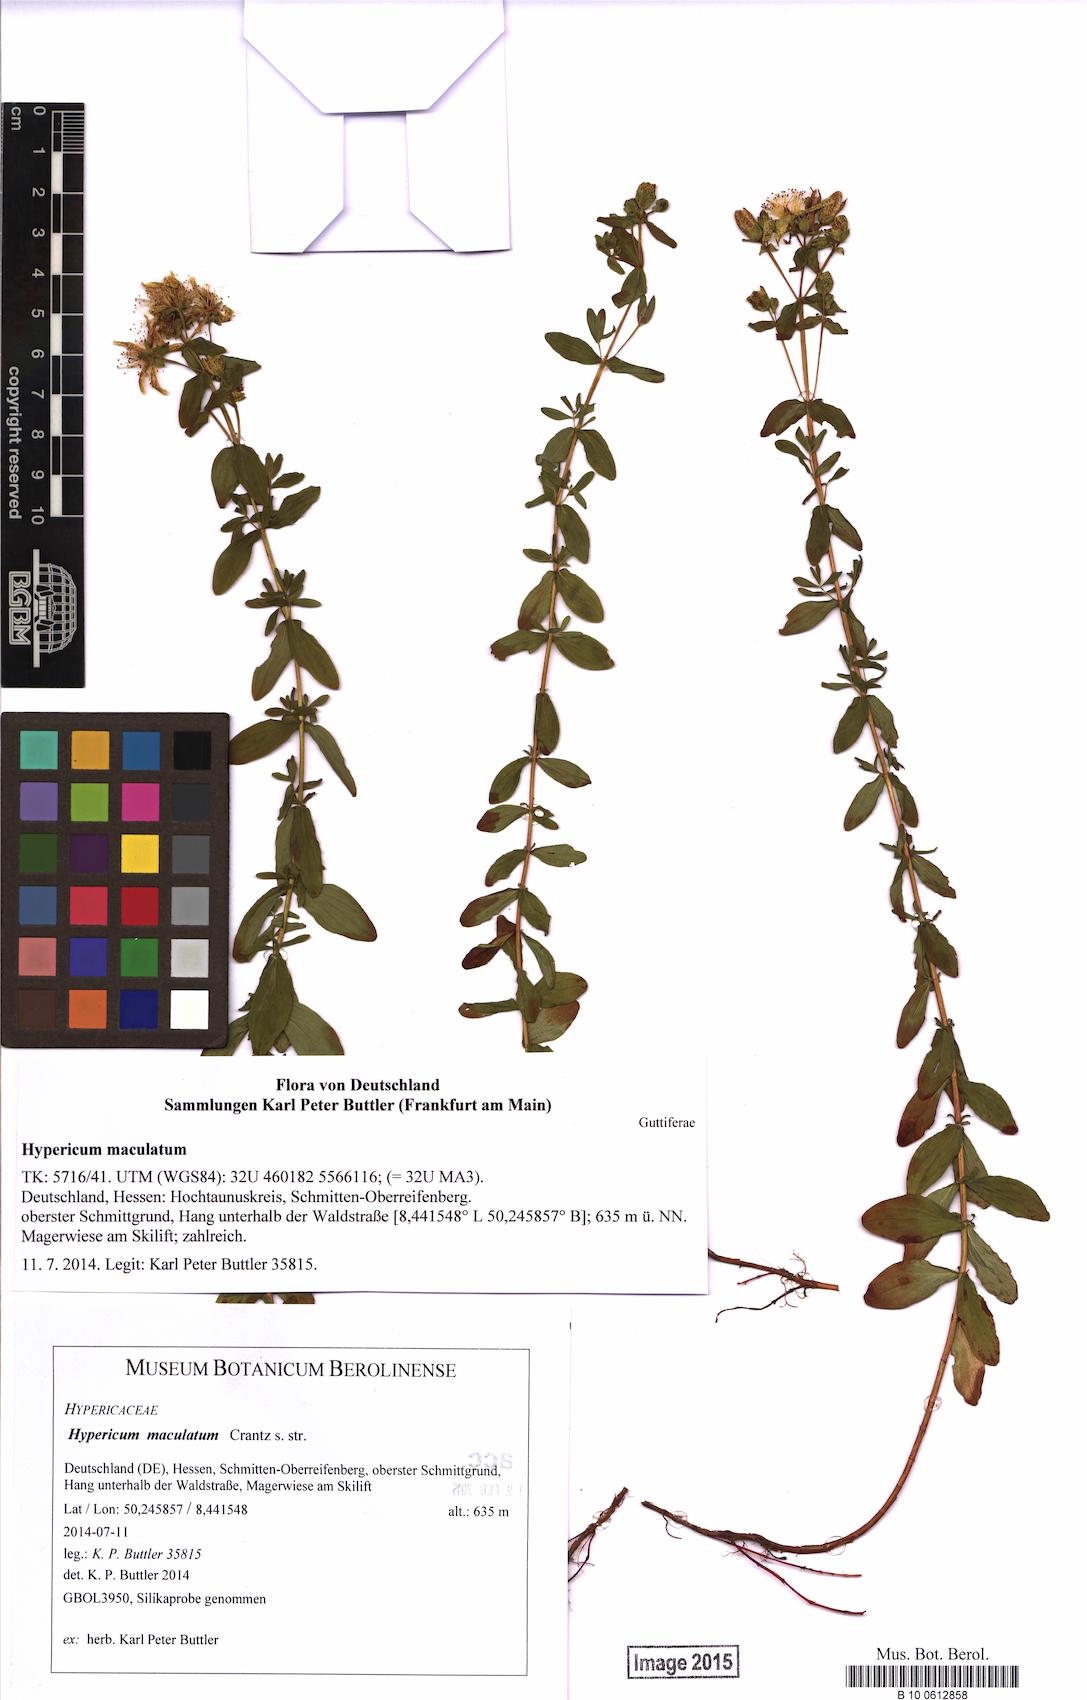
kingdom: Plantae
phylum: Tracheophyta
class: Magnoliopsida
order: Malpighiales
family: Hypericaceae
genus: Hypericum
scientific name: Hypericum maculatum
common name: Imperforate st. john's-wort
